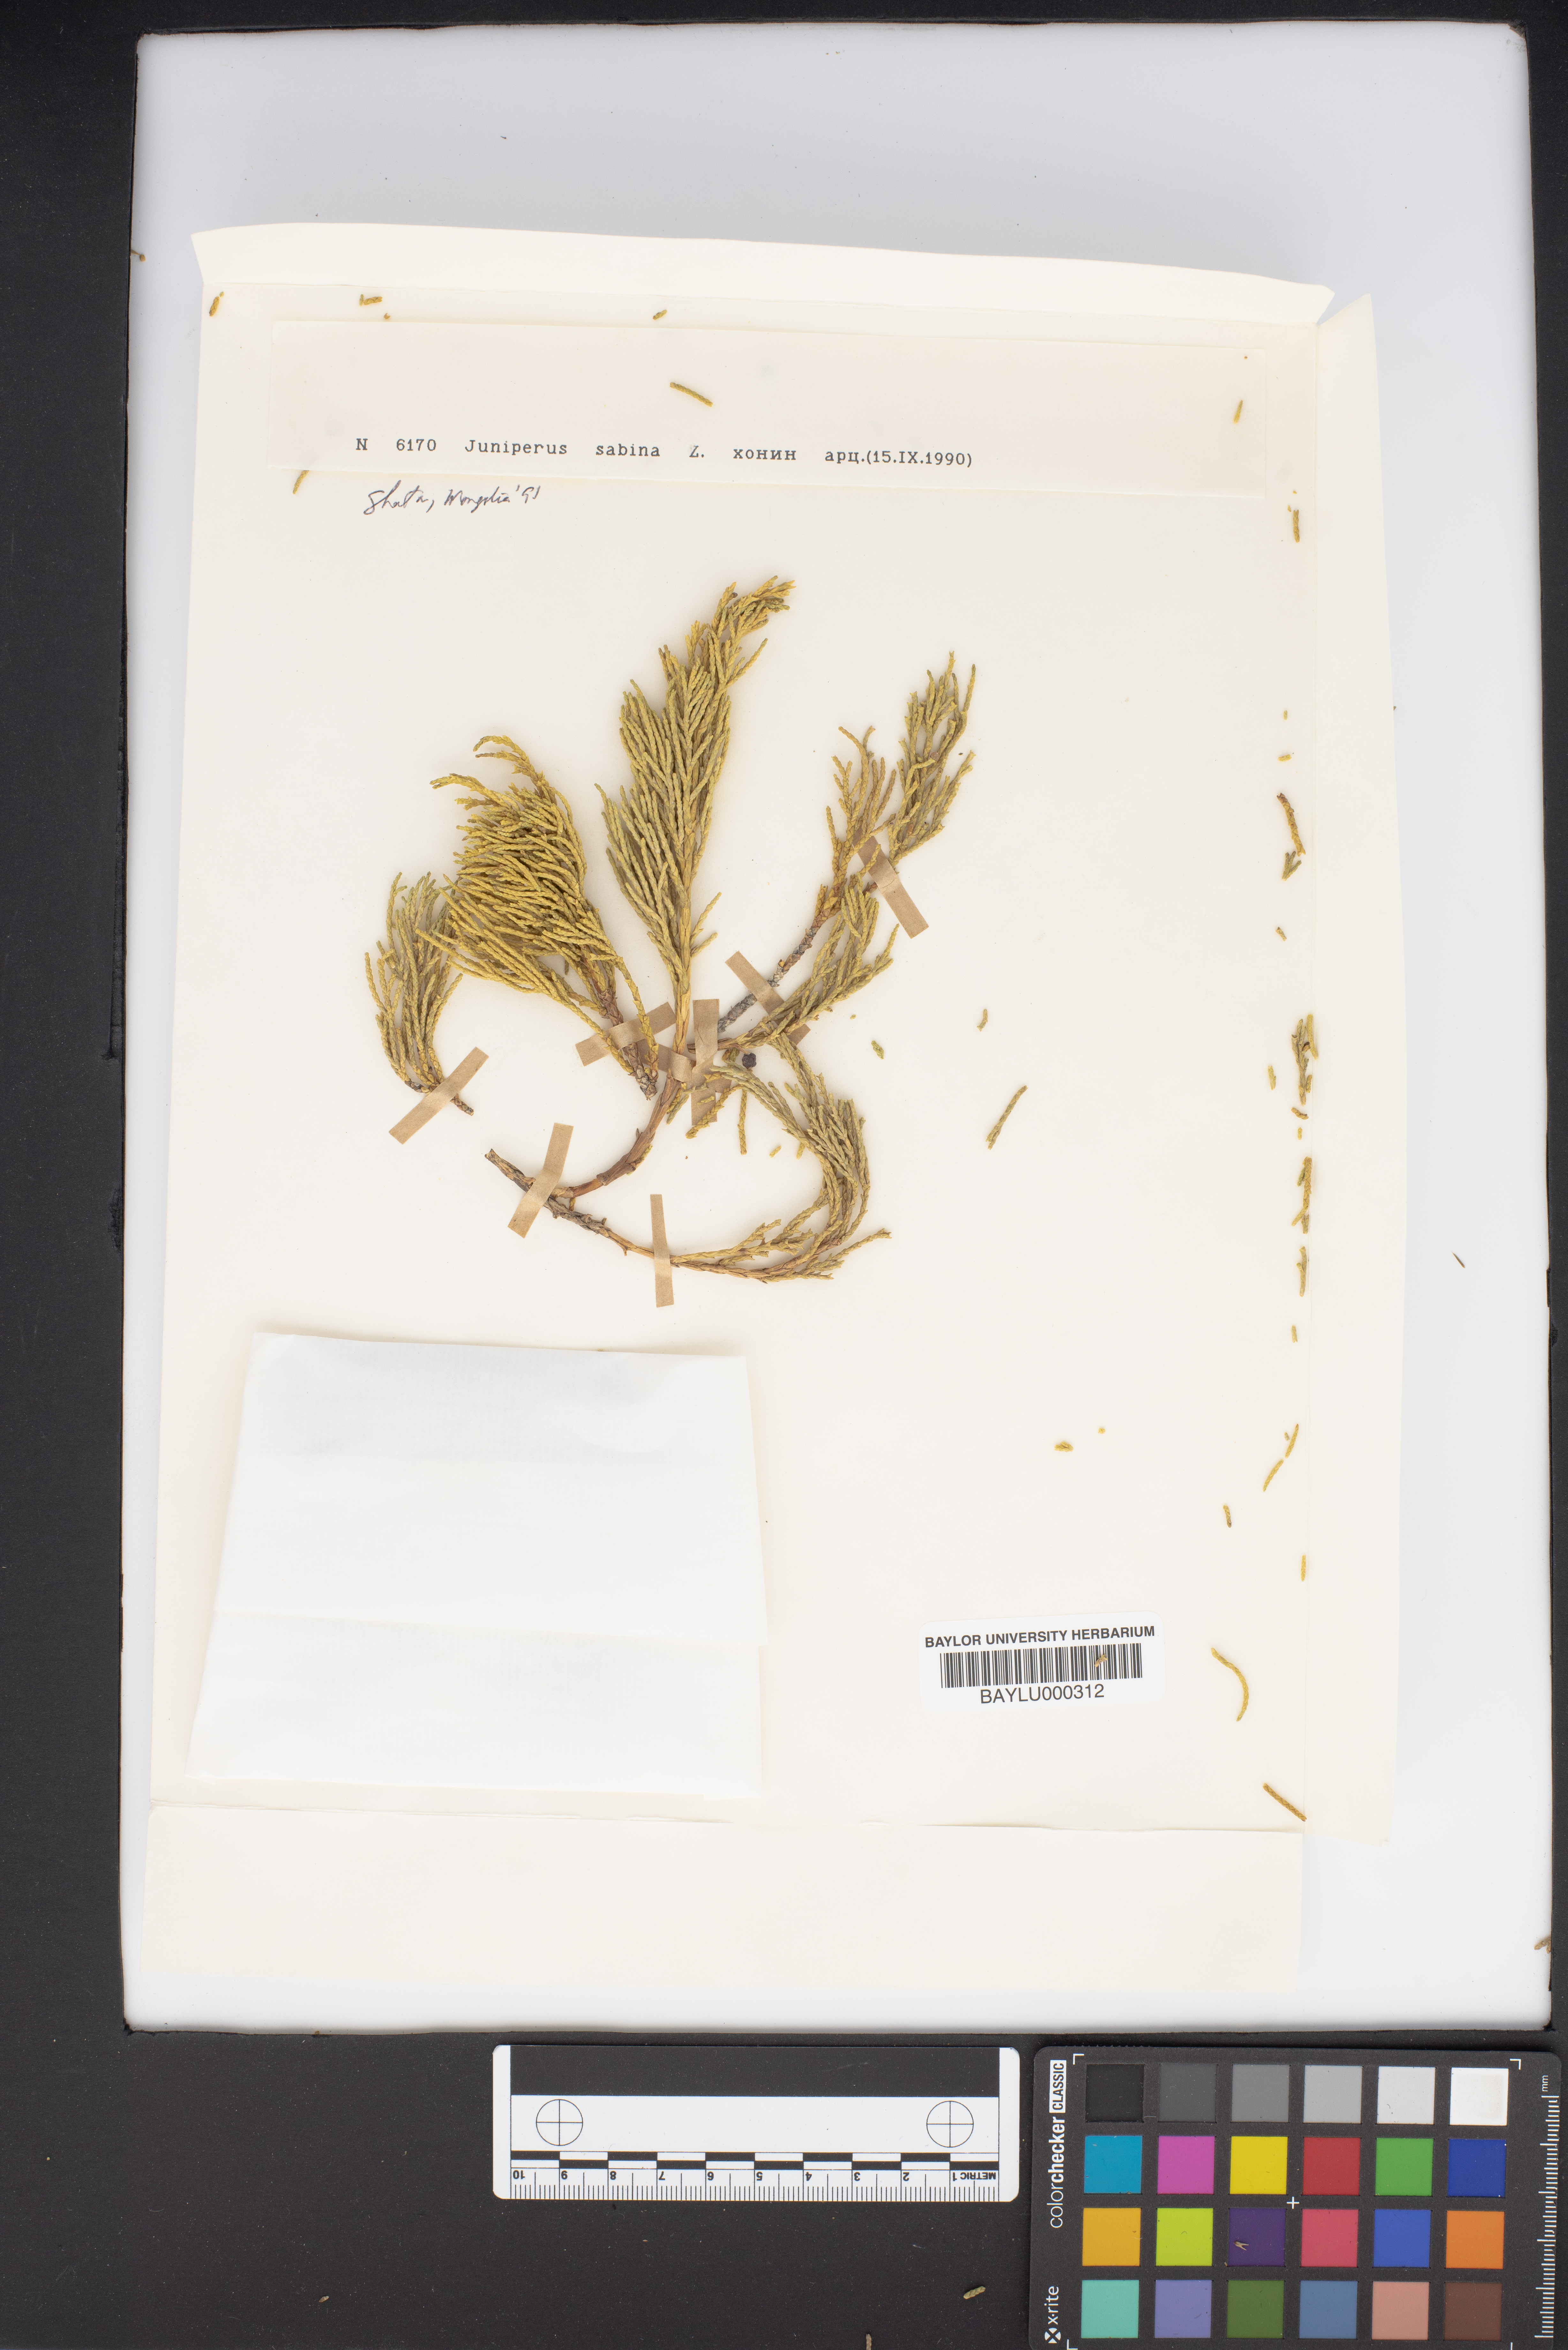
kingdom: Plantae
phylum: Tracheophyta
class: Pinopsida
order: Pinales
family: Cupressaceae
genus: Juniperus
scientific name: Juniperus sabina
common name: Savin
